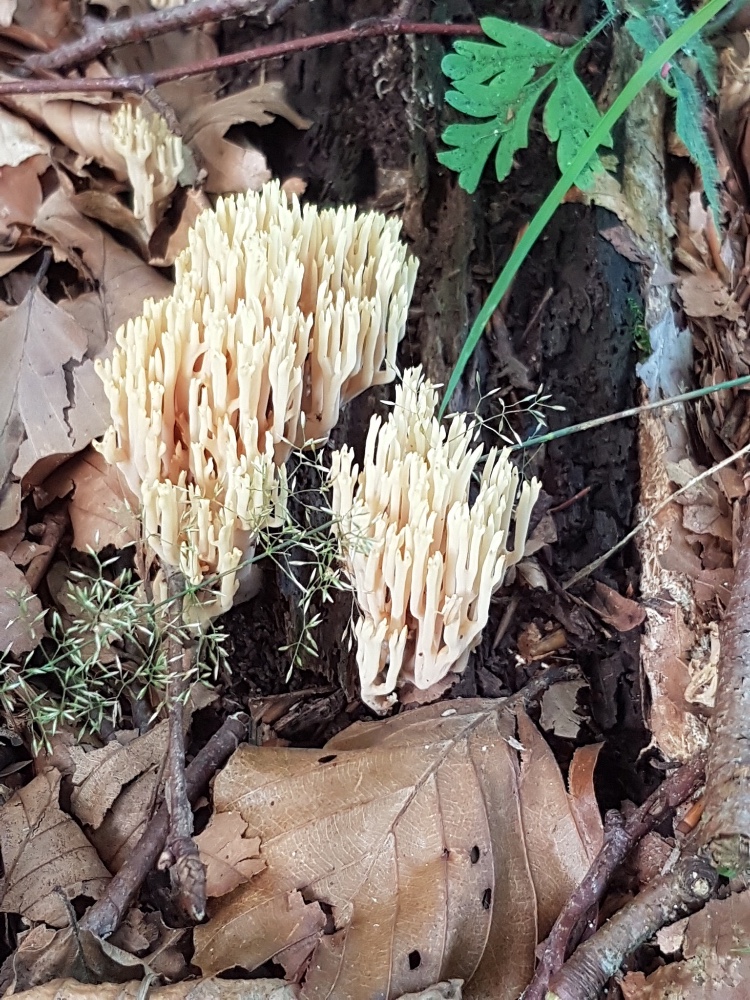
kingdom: Fungi
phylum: Basidiomycota
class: Agaricomycetes
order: Gomphales
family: Gomphaceae
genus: Ramaria
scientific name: Ramaria stricta
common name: rank koralsvamp
